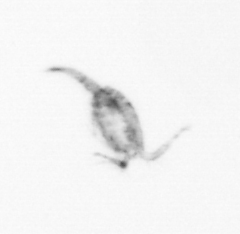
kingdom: Animalia
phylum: Arthropoda
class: Copepoda
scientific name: Copepoda
